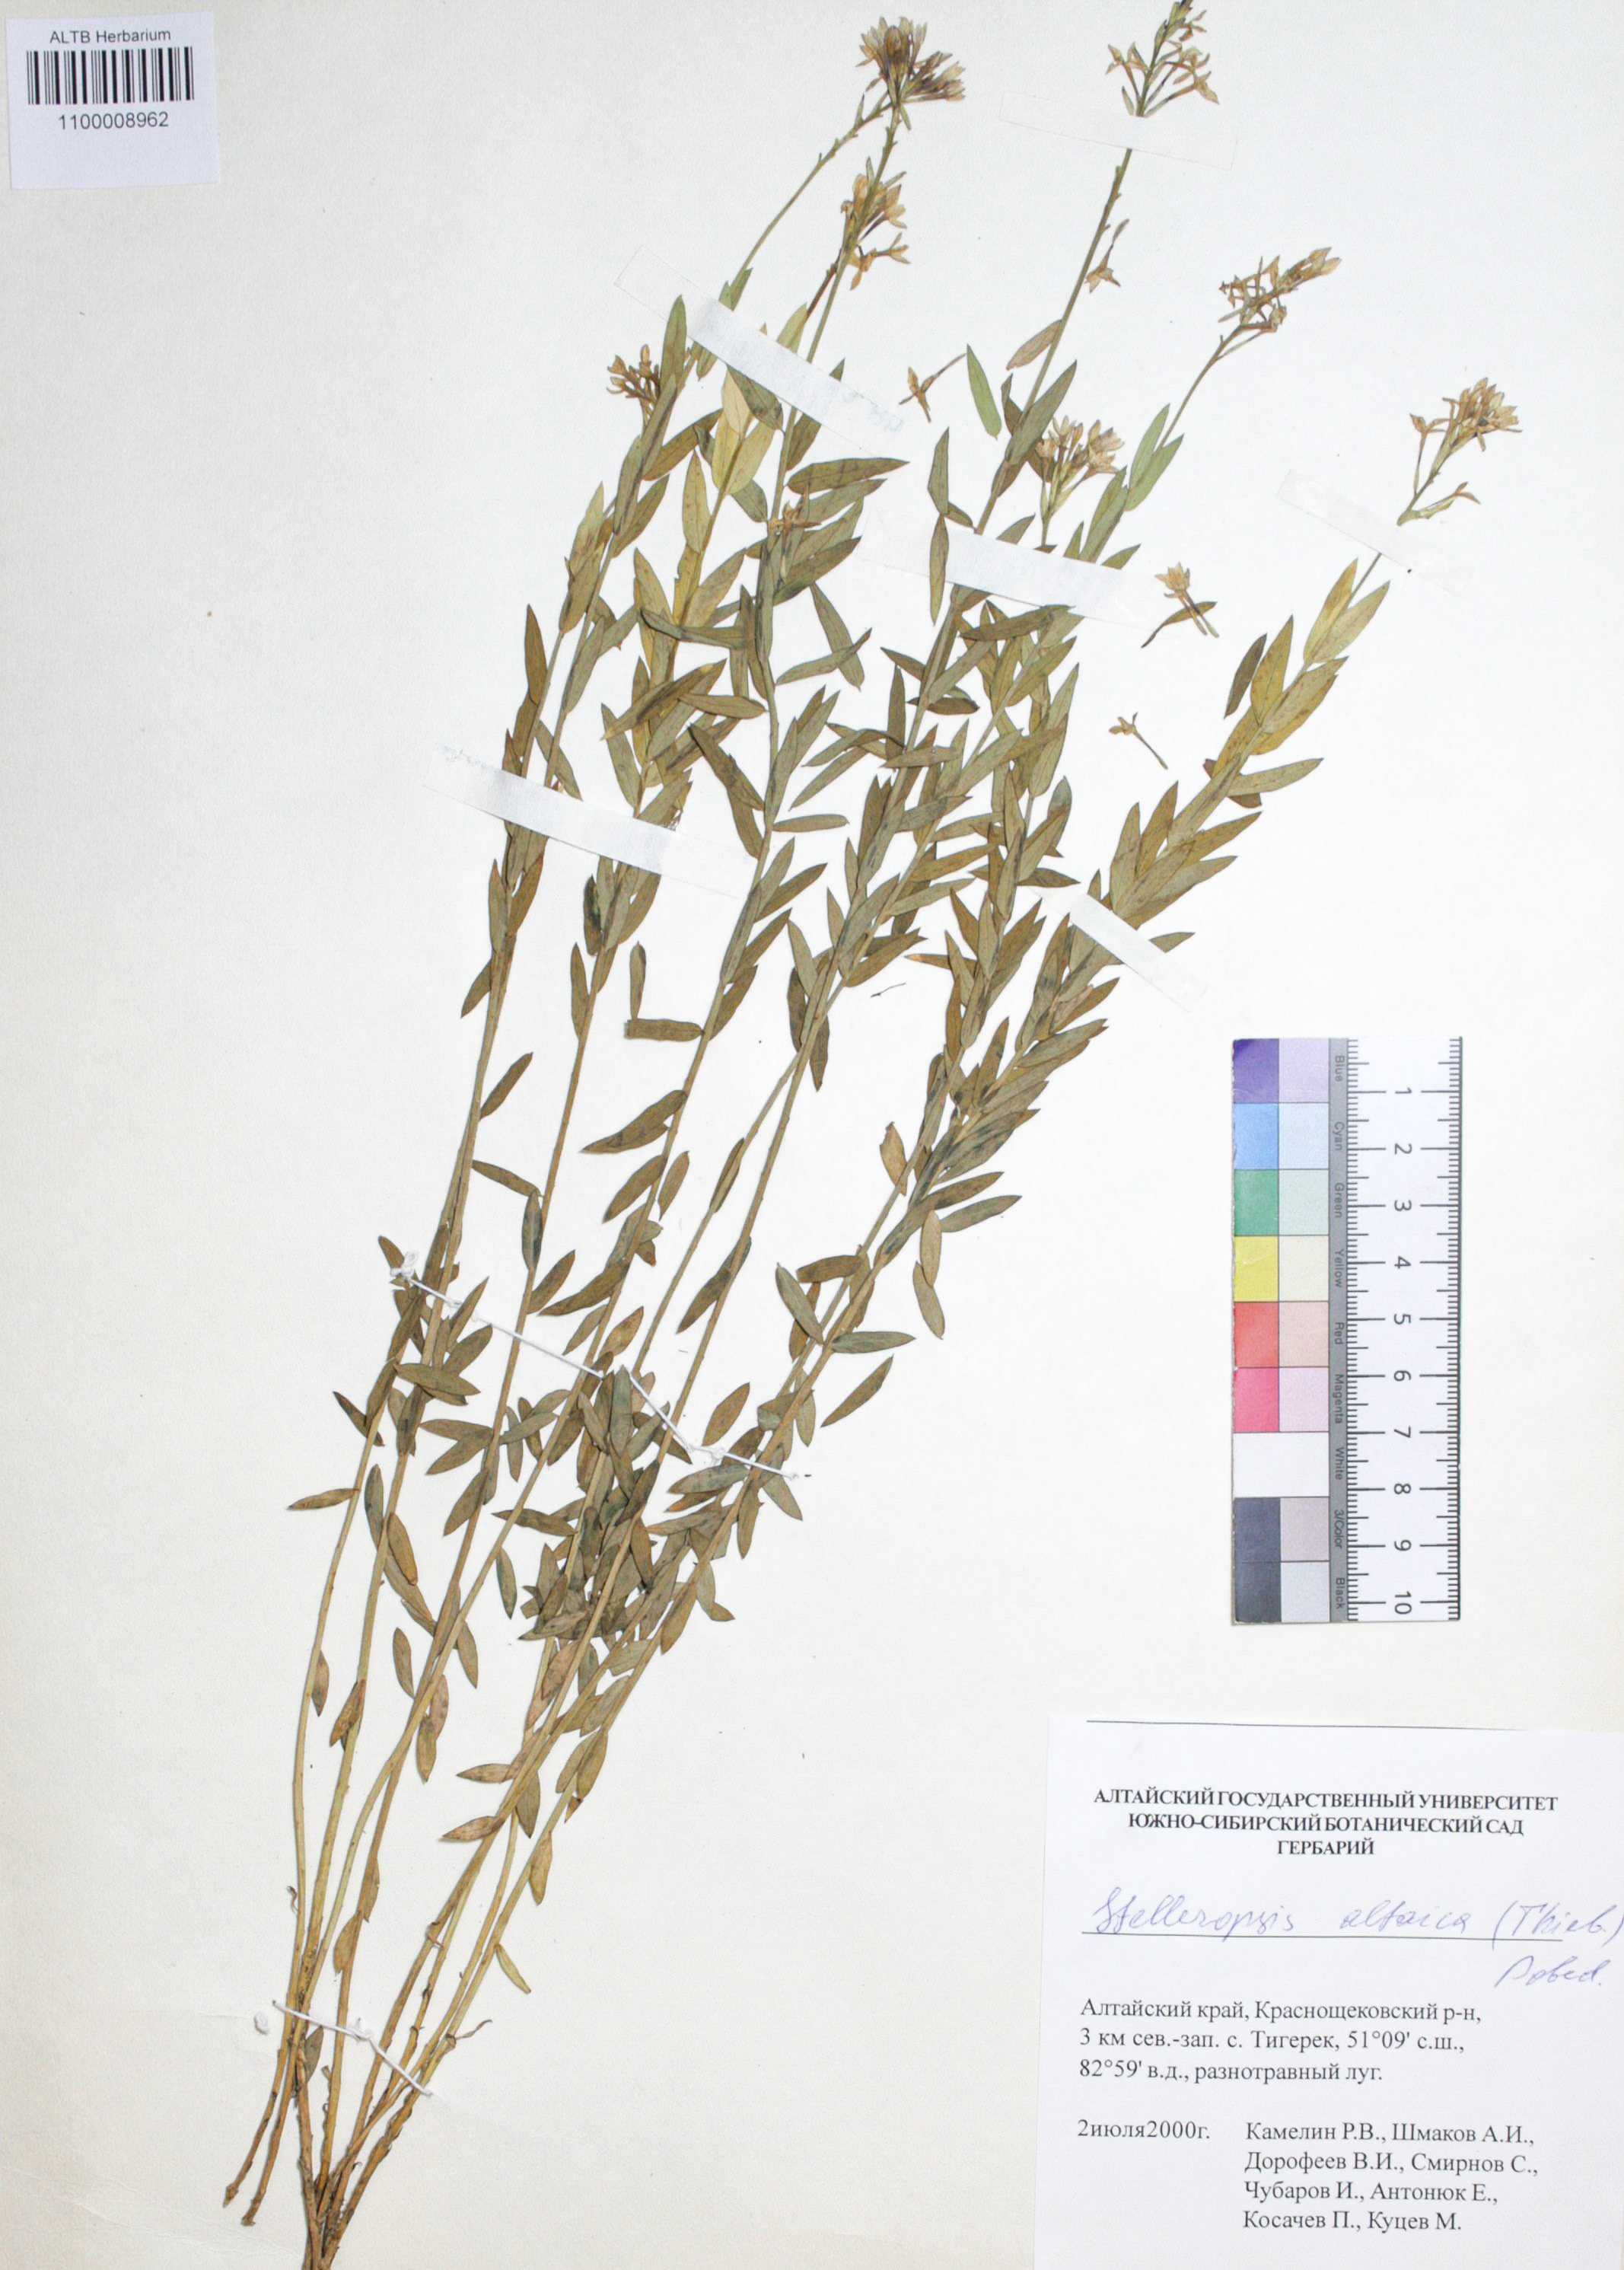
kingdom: Plantae
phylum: Tracheophyta
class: Magnoliopsida
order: Malvales
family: Thymelaeaceae
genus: Diarthron
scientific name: Diarthron altaicum
